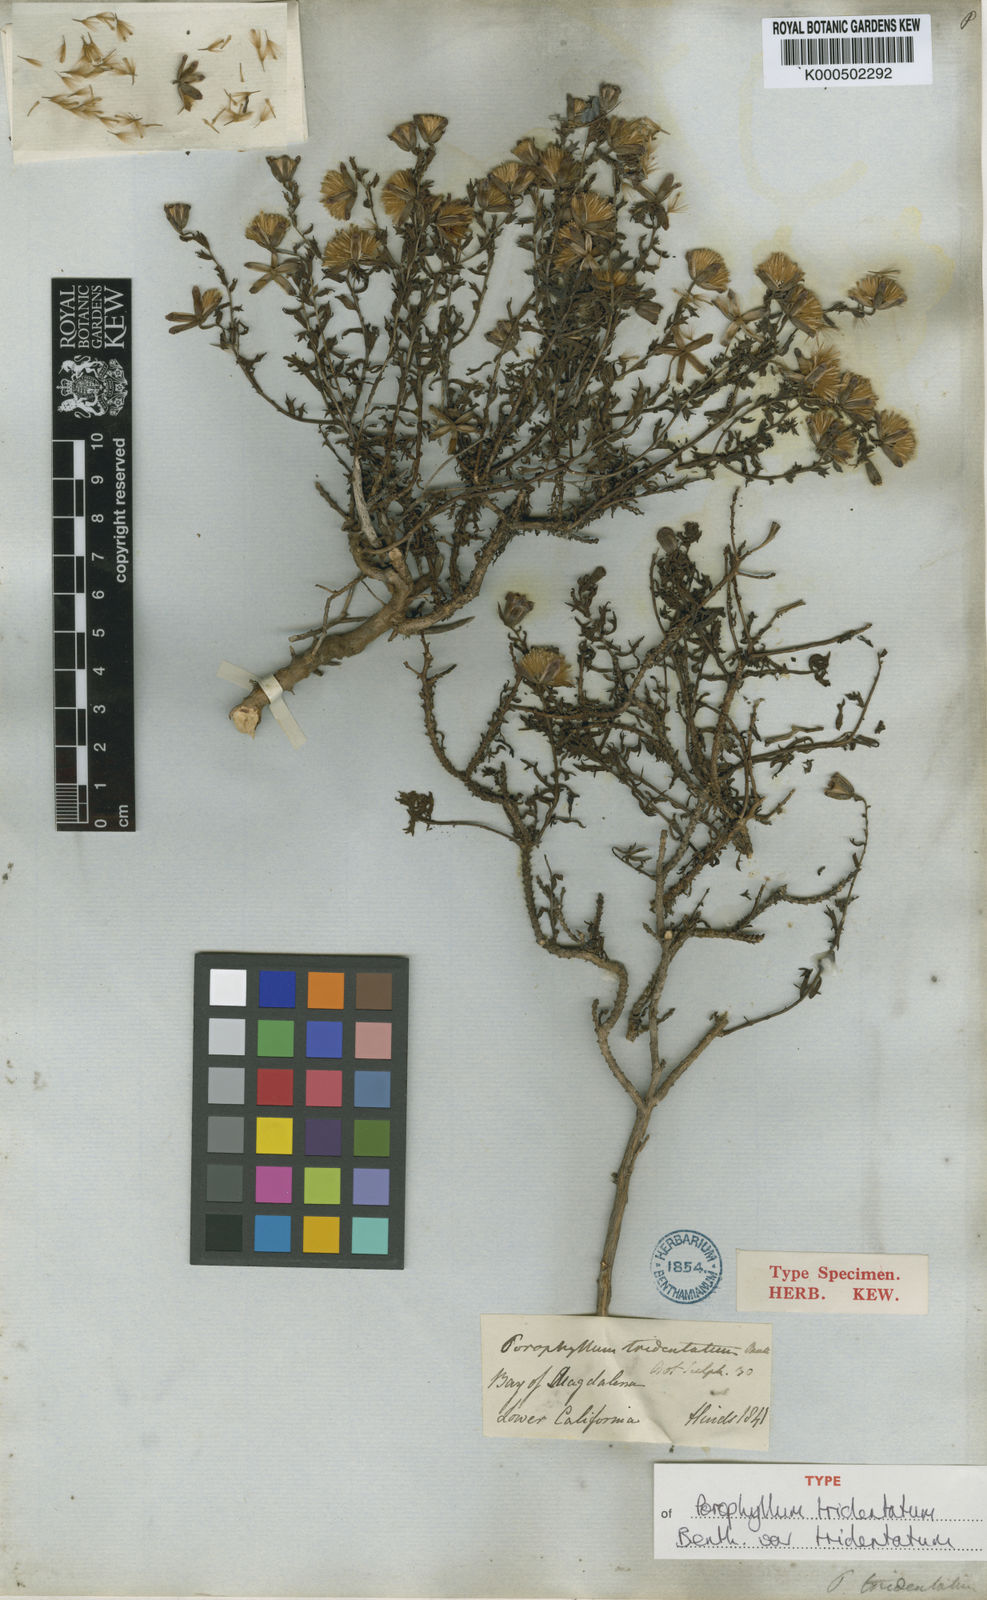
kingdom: Plantae
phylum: Tracheophyta
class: Magnoliopsida
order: Asterales
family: Asteraceae
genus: Bajacalia
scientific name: Bajacalia tridentata
